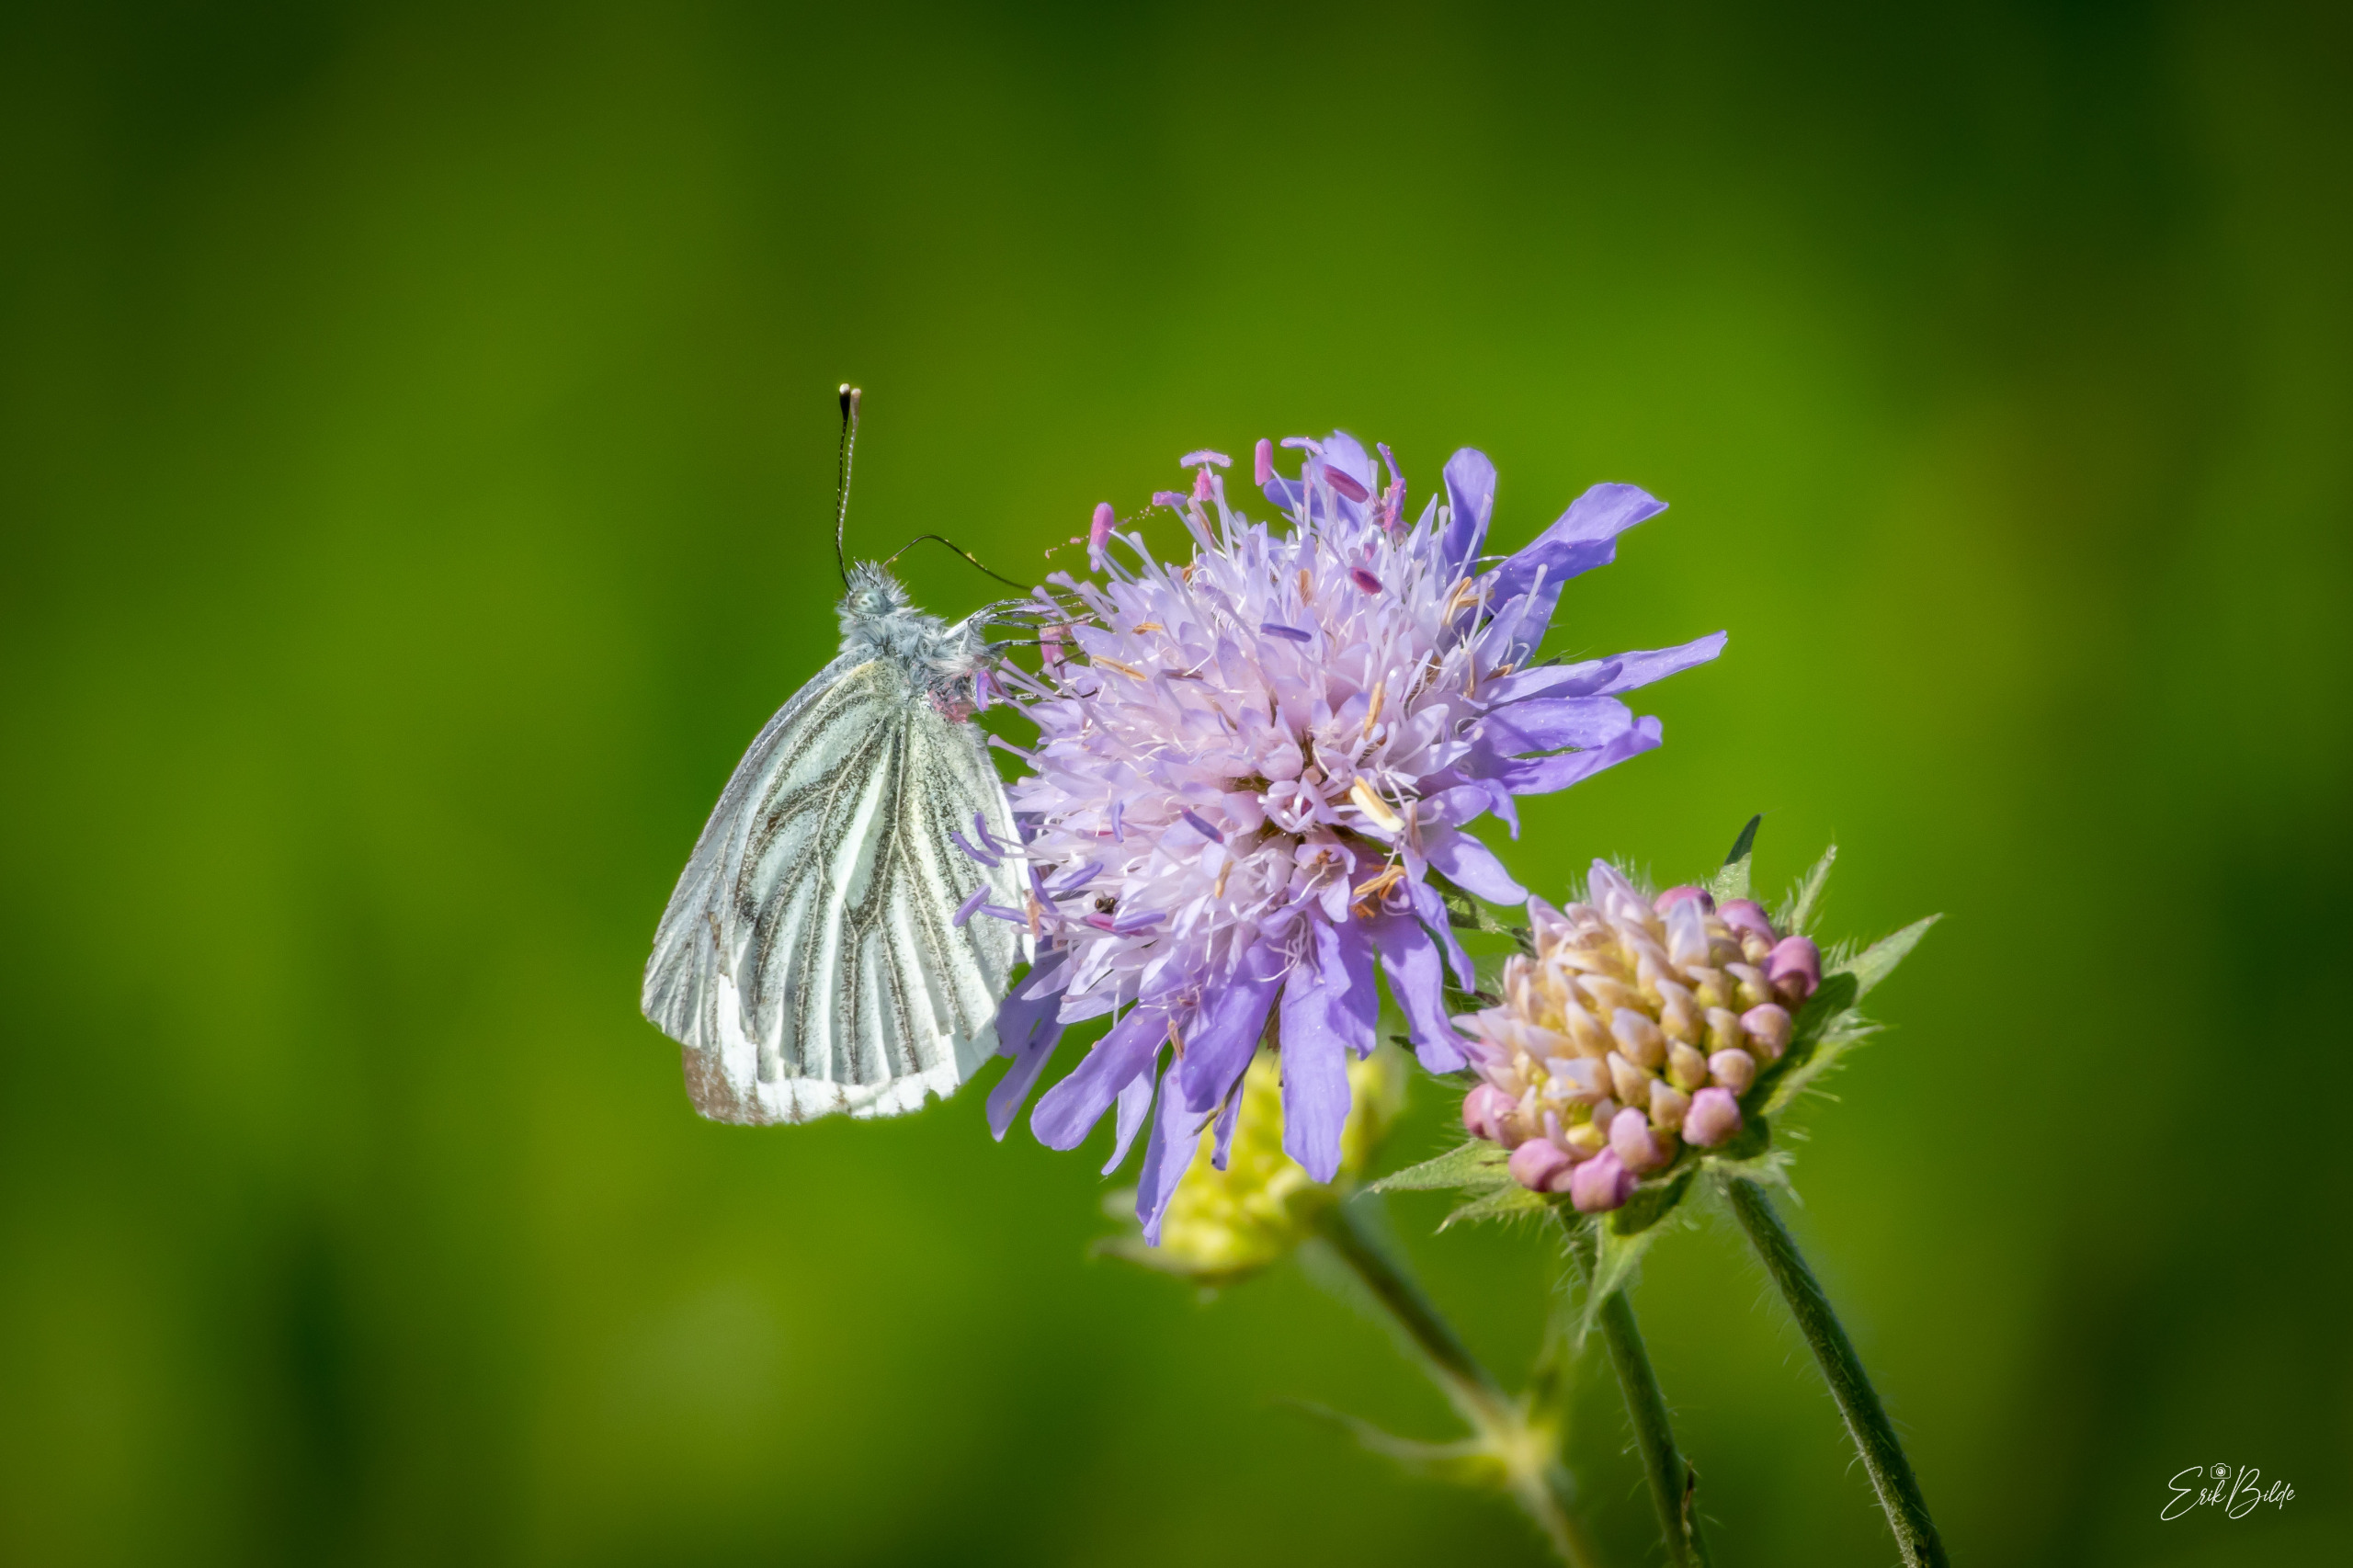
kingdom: Animalia
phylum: Arthropoda
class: Insecta
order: Lepidoptera
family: Pieridae
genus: Pieris
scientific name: Pieris napi
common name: Grønåret kålsommerfugl
